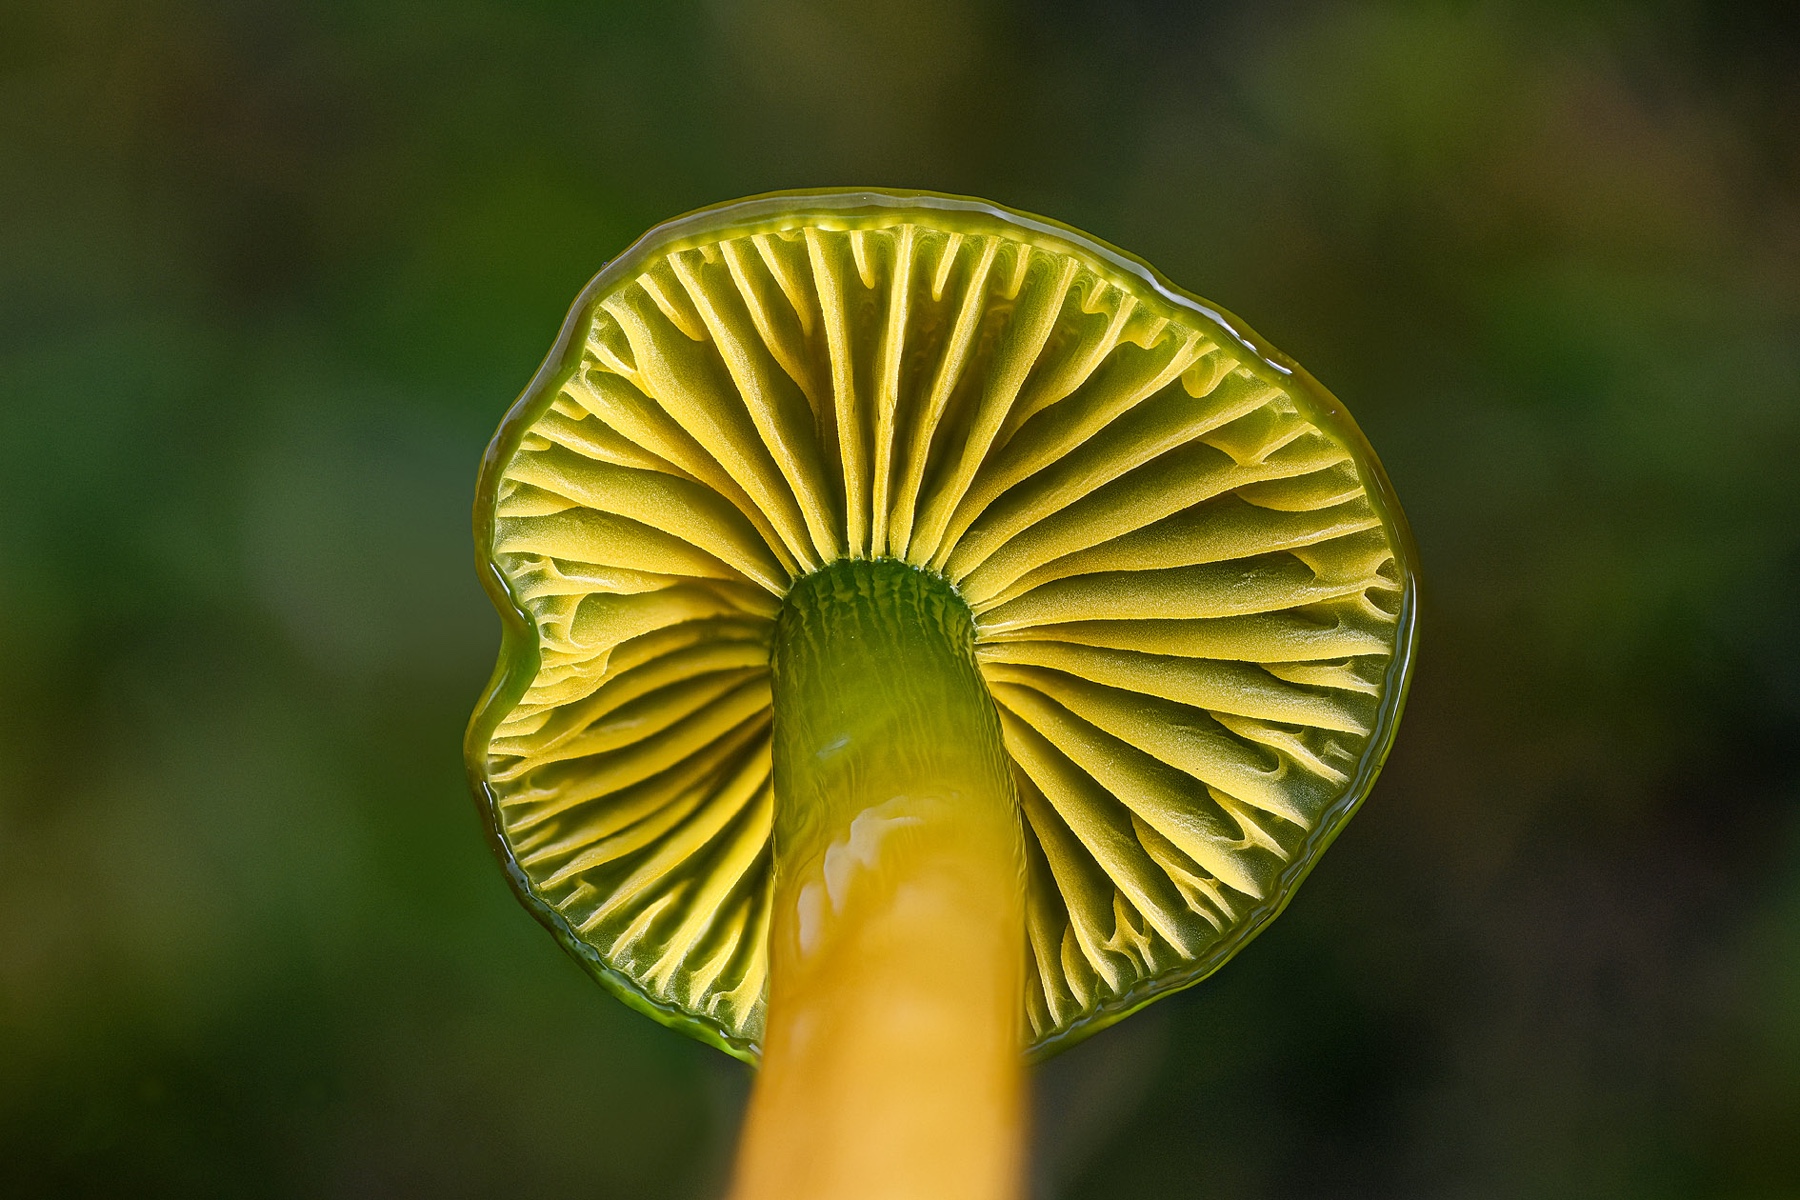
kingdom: Fungi
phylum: Basidiomycota
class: Agaricomycetes
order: Agaricales
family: Hygrophoraceae
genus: Gliophorus
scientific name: Gliophorus psittacinus
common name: papegøje-vokshat
